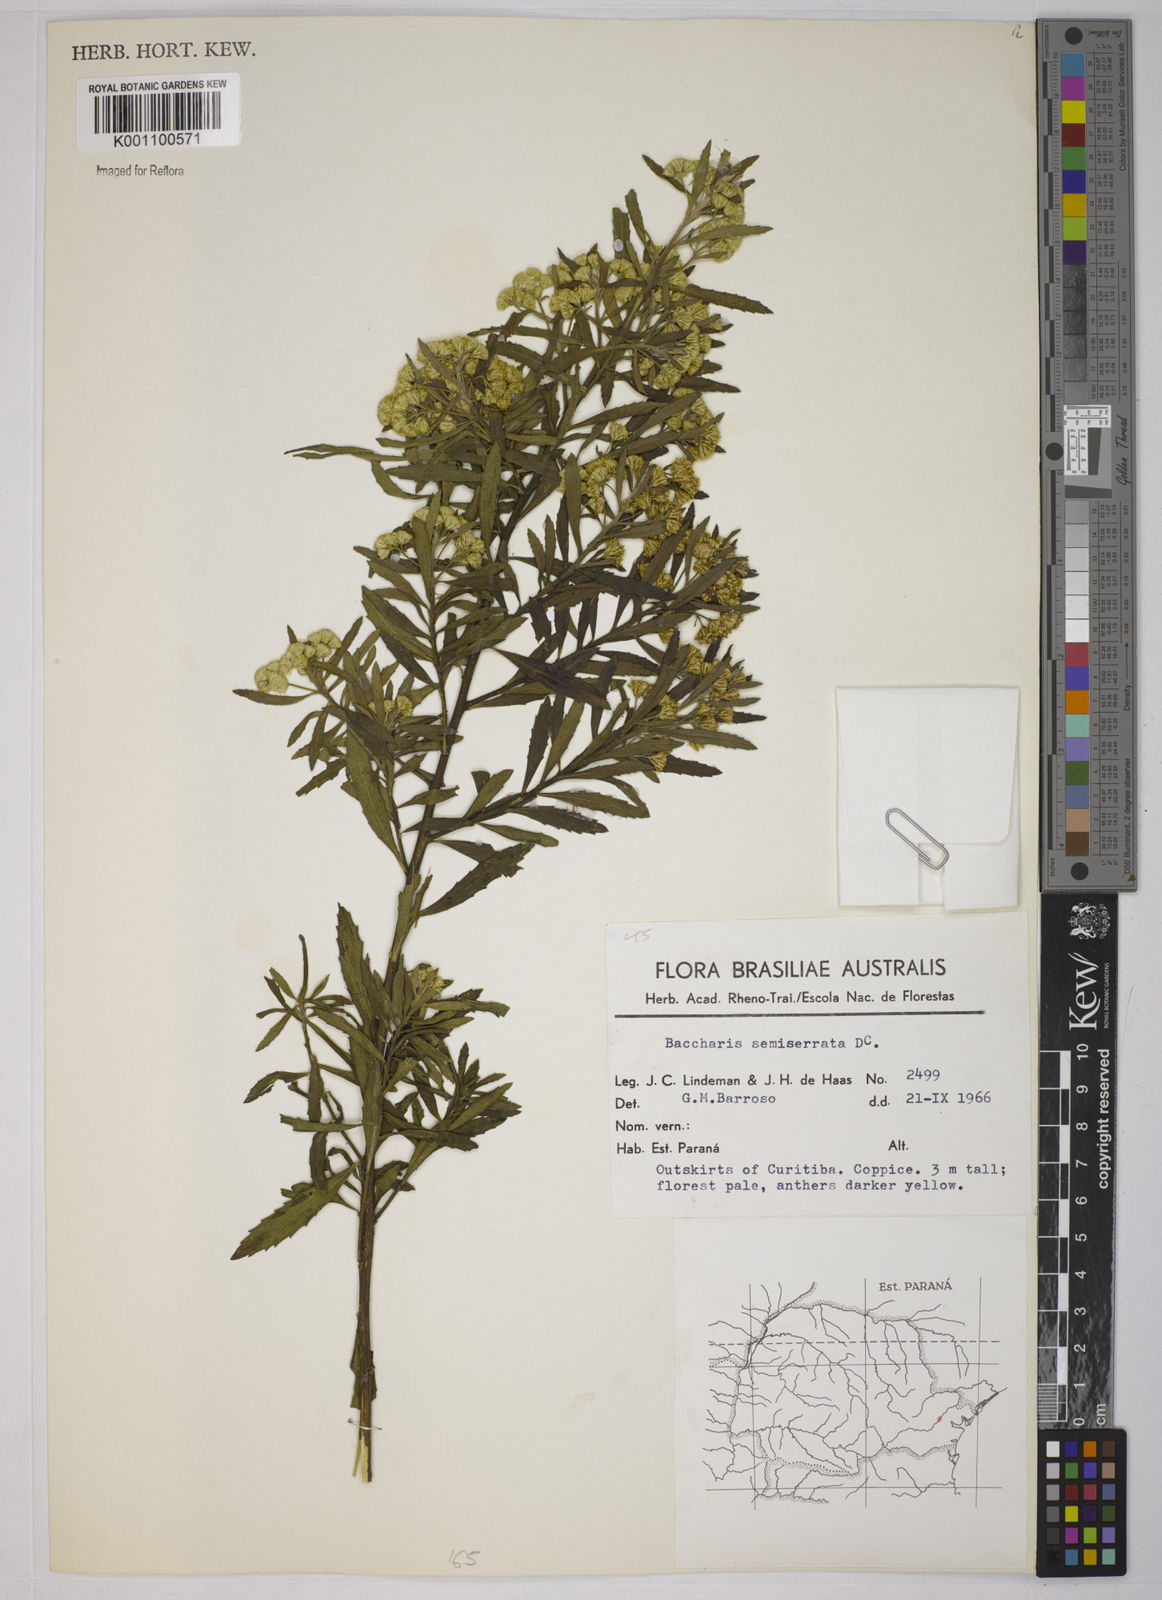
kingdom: Plantae
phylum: Tracheophyta
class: Magnoliopsida
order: Asterales
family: Asteraceae
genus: Baccharis
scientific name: Baccharis gnidiifolia
